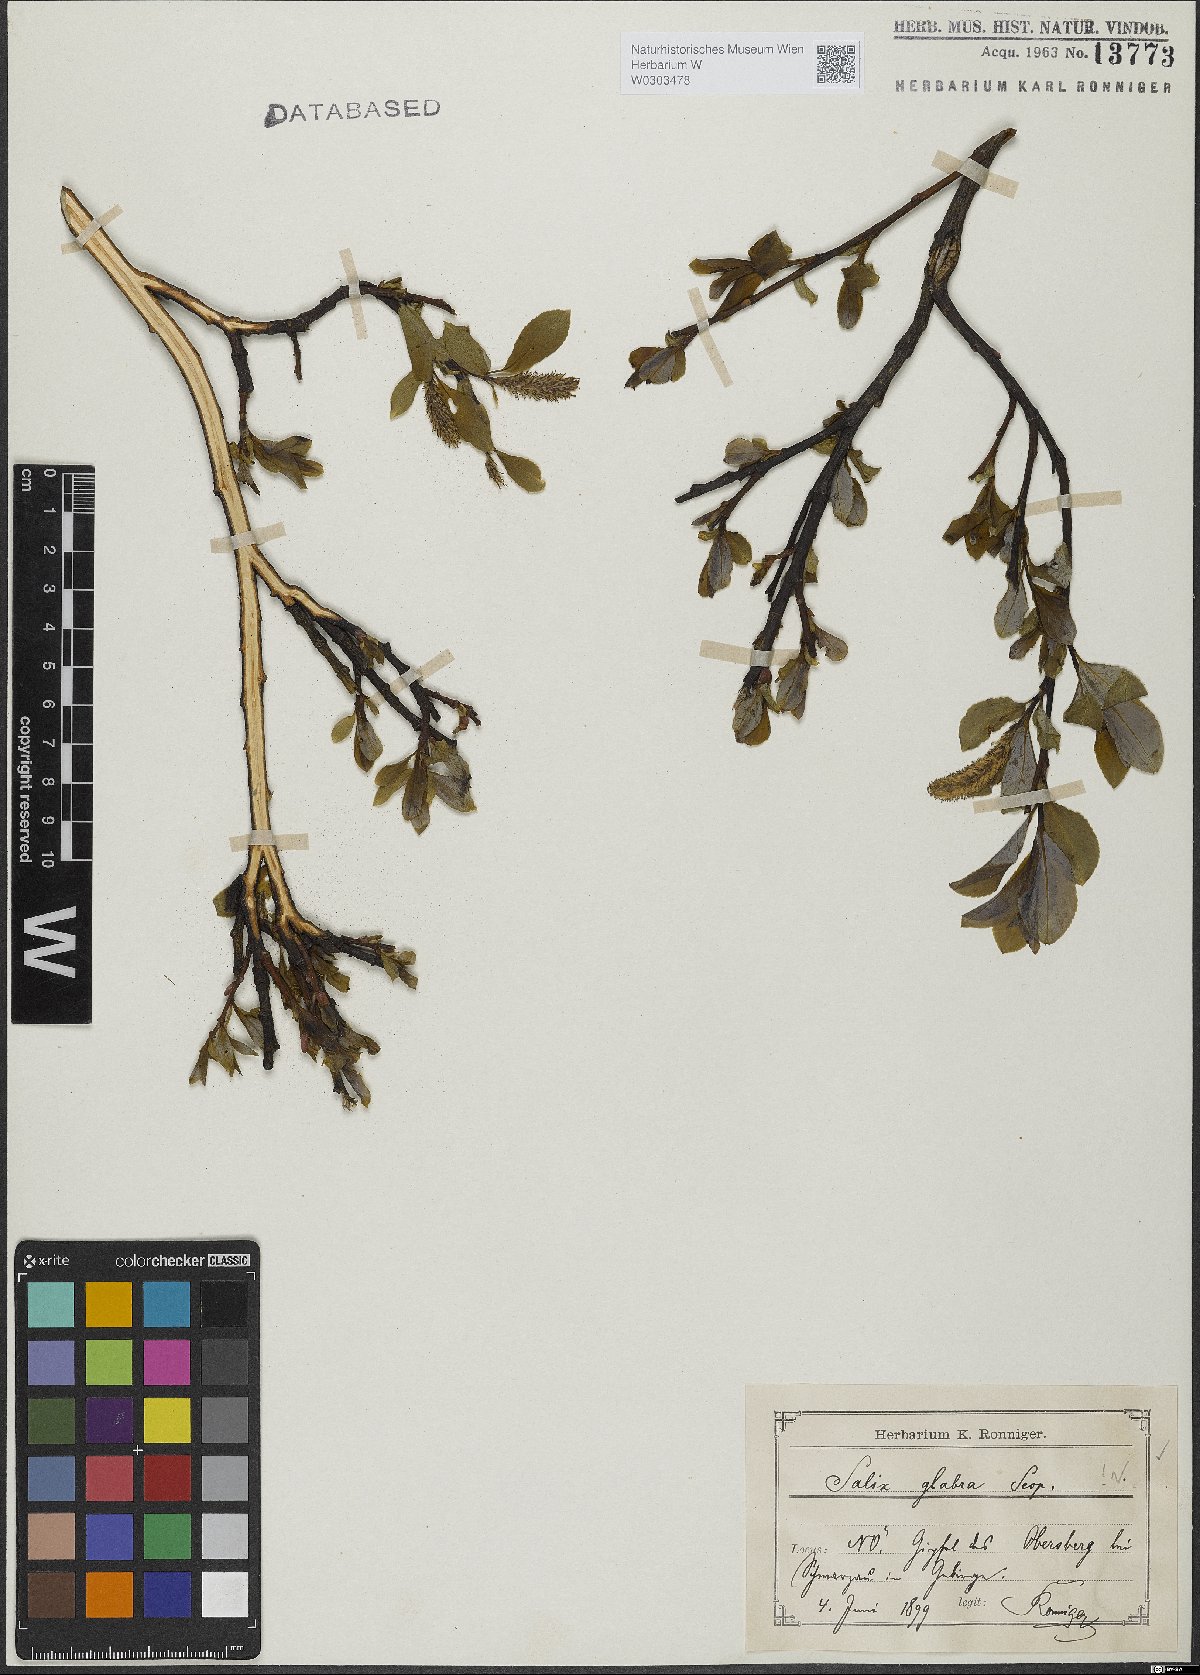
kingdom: Plantae
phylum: Tracheophyta
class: Magnoliopsida
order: Malpighiales
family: Salicaceae
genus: Salix
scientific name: Salix glabra
